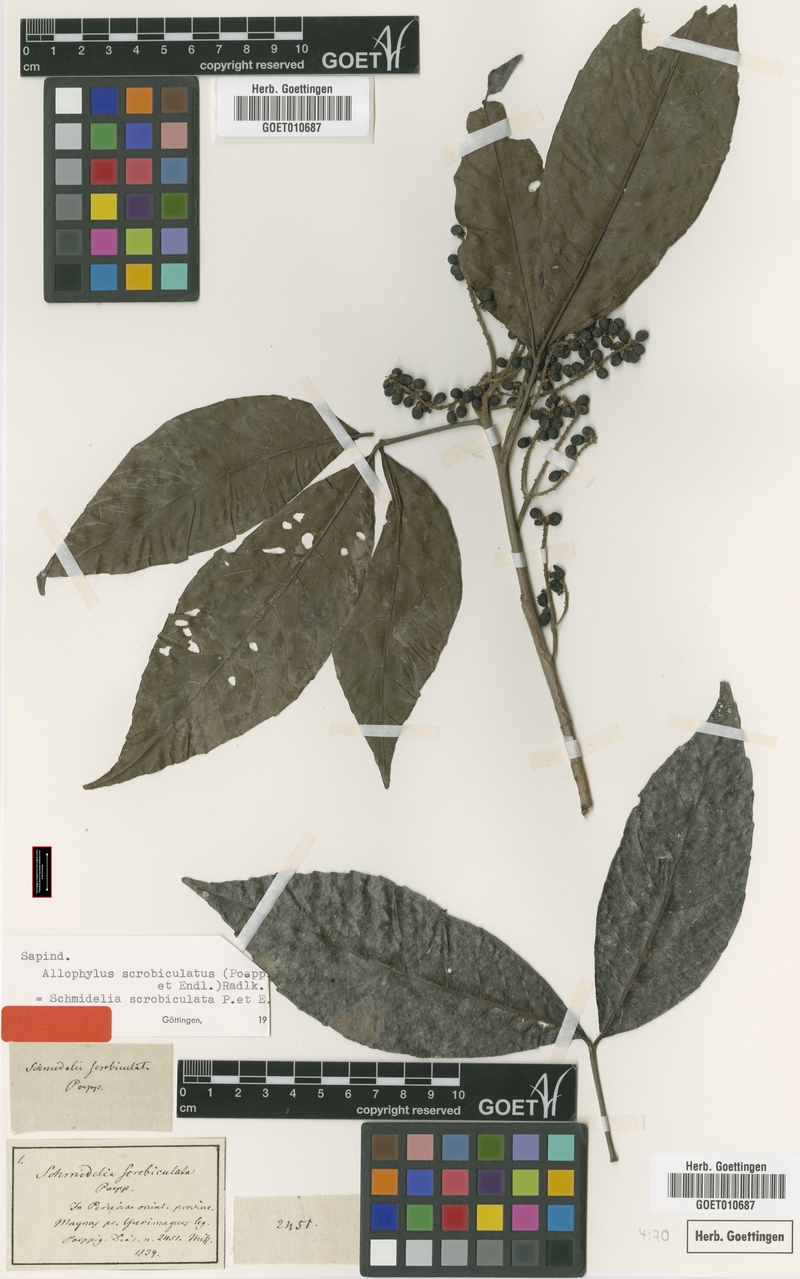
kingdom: Plantae
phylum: Tracheophyta
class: Magnoliopsida
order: Sapindales
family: Sapindaceae
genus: Allophylus
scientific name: Allophylus scrobiculatus
